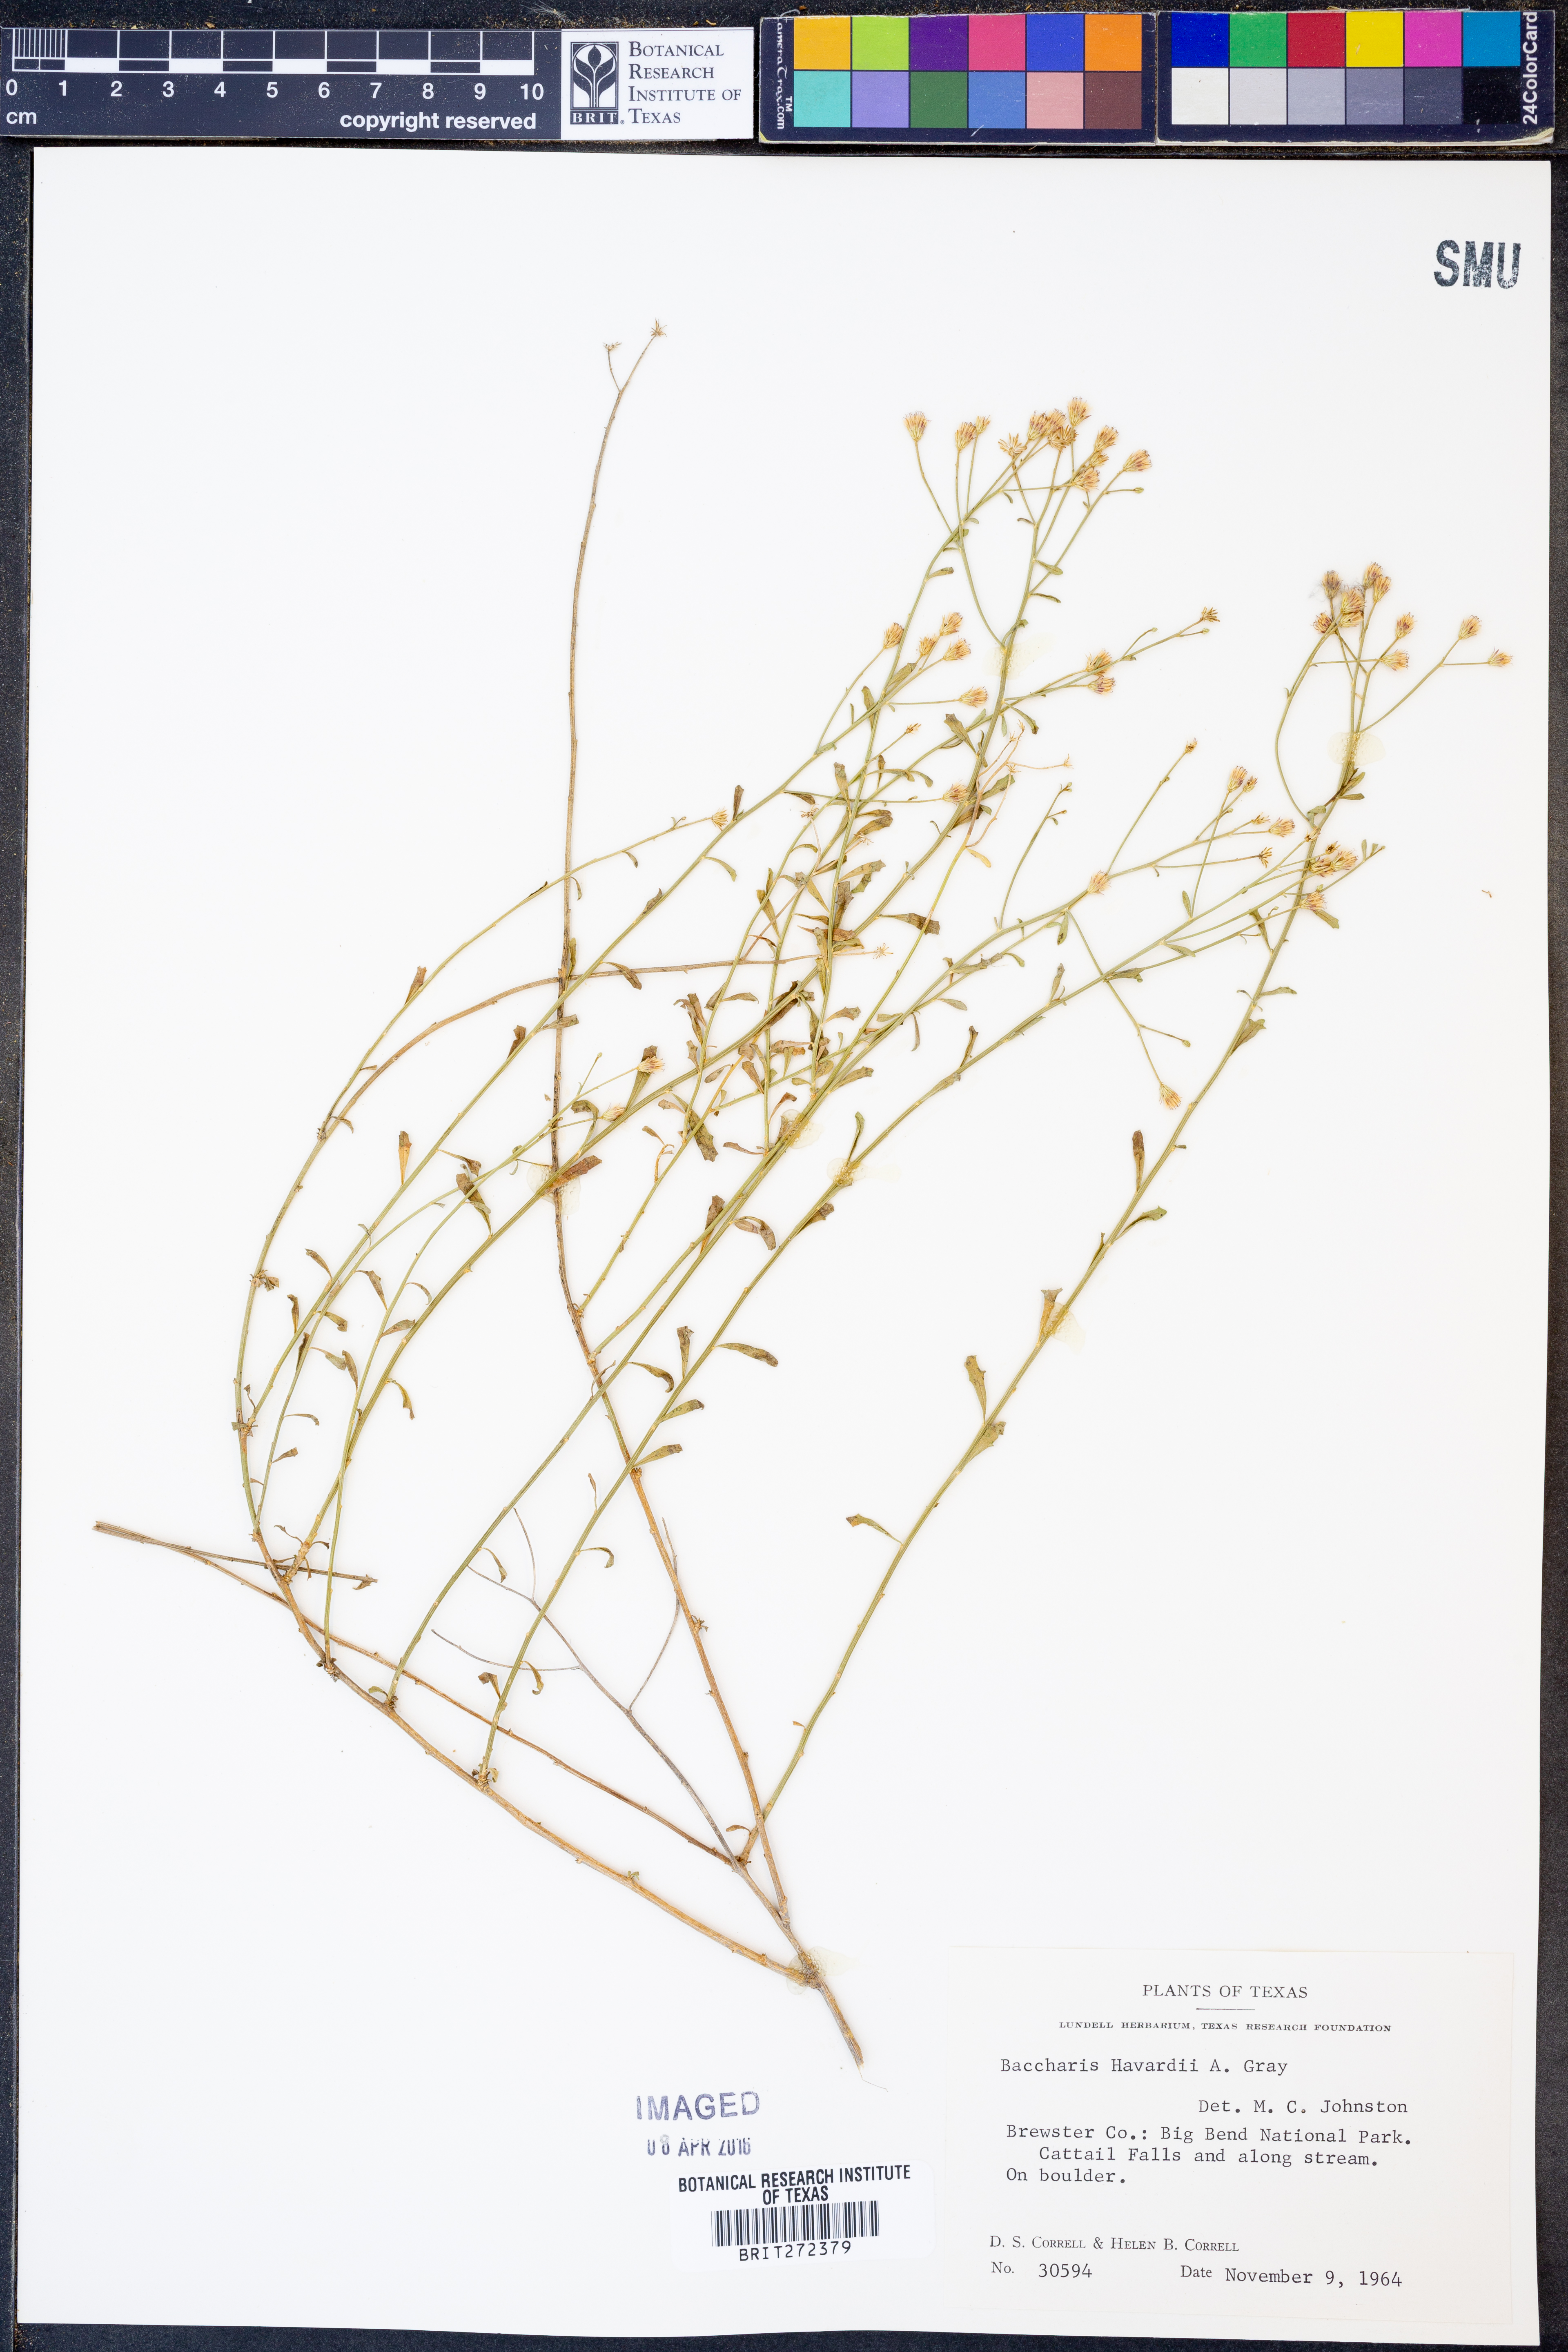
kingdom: Plantae
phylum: Tracheophyta
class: Magnoliopsida
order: Asterales
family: Asteraceae
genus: Baccharis
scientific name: Baccharis havardii
